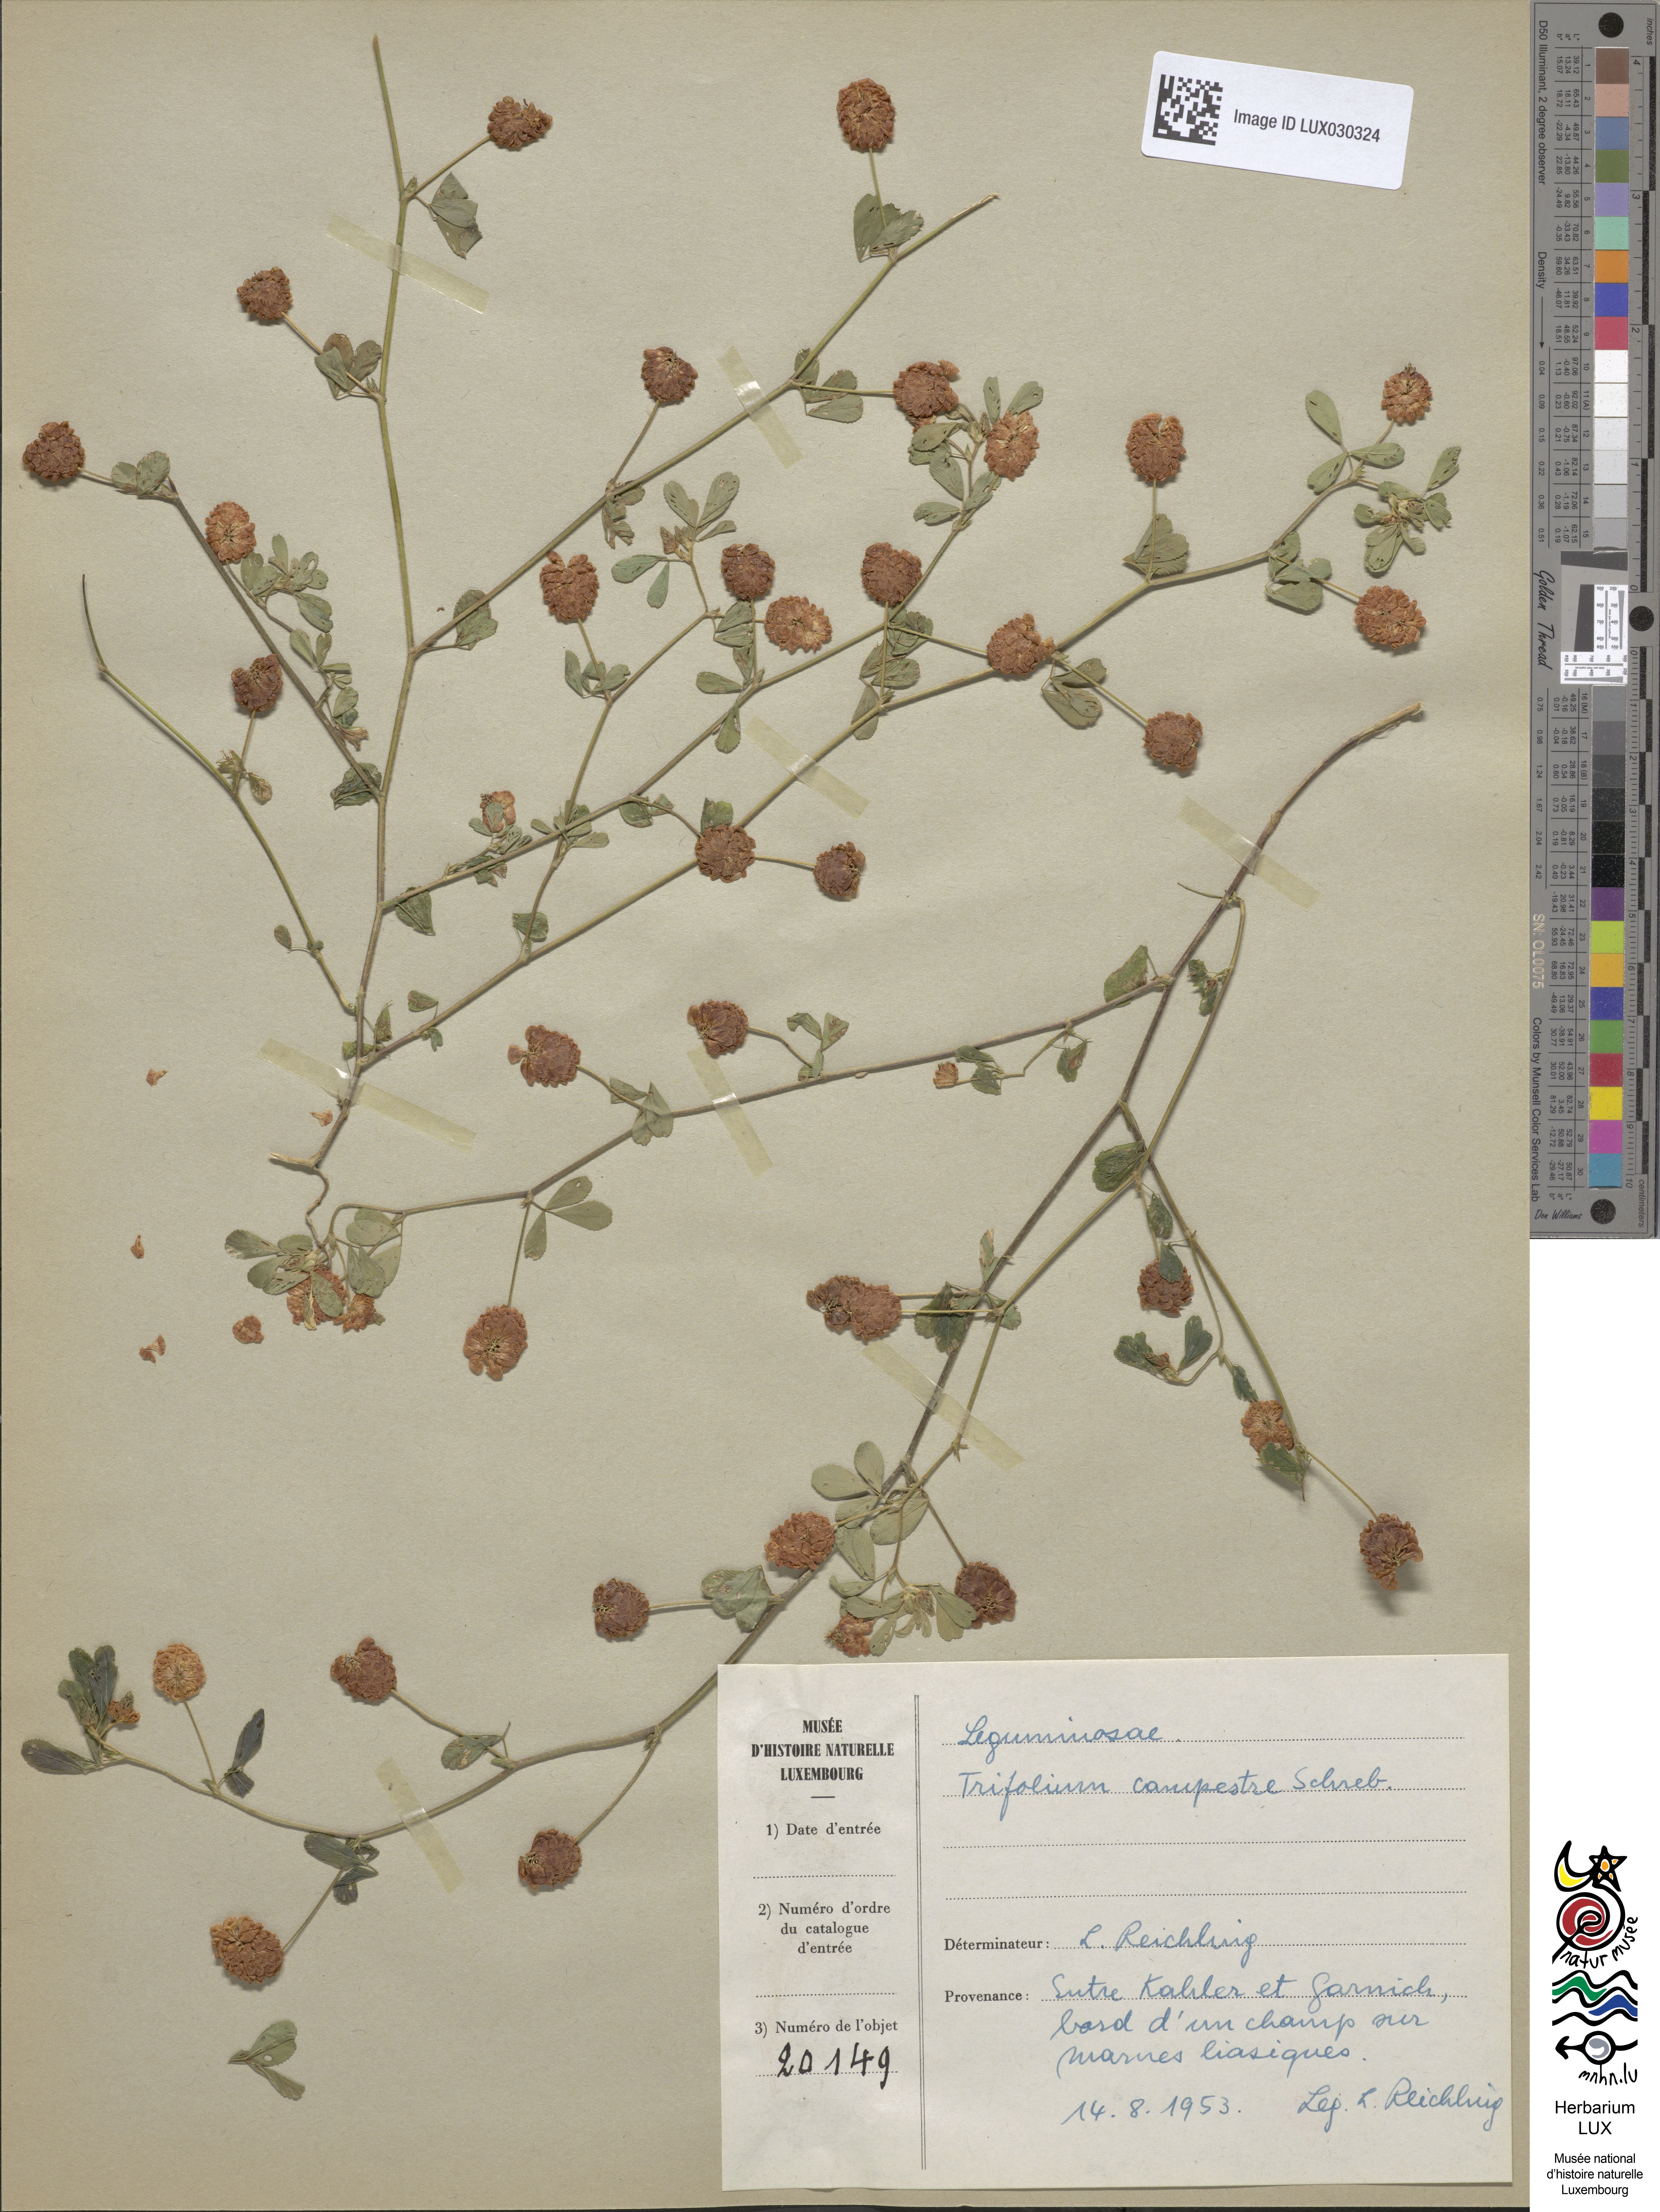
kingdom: Plantae
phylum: Tracheophyta
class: Magnoliopsida
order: Fabales
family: Fabaceae
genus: Trifolium
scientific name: Trifolium campestre
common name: Field clover
